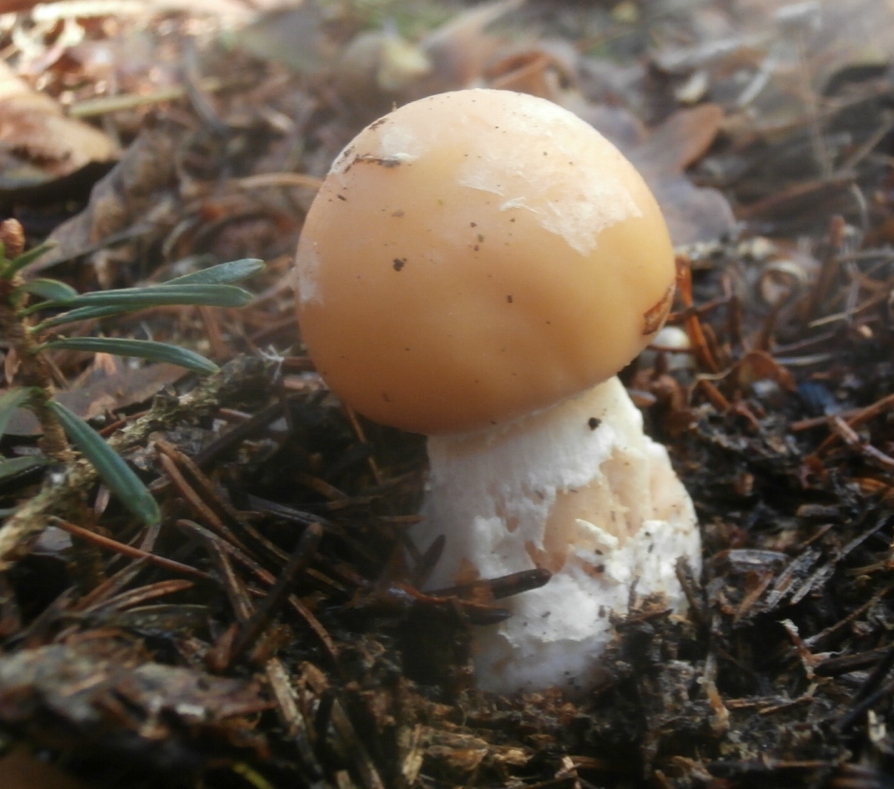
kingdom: Fungi
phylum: Basidiomycota
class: Agaricomycetes
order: Agaricales
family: Amanitaceae
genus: Amanita
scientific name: Amanita gemmata
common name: okkergul fluesvamp
